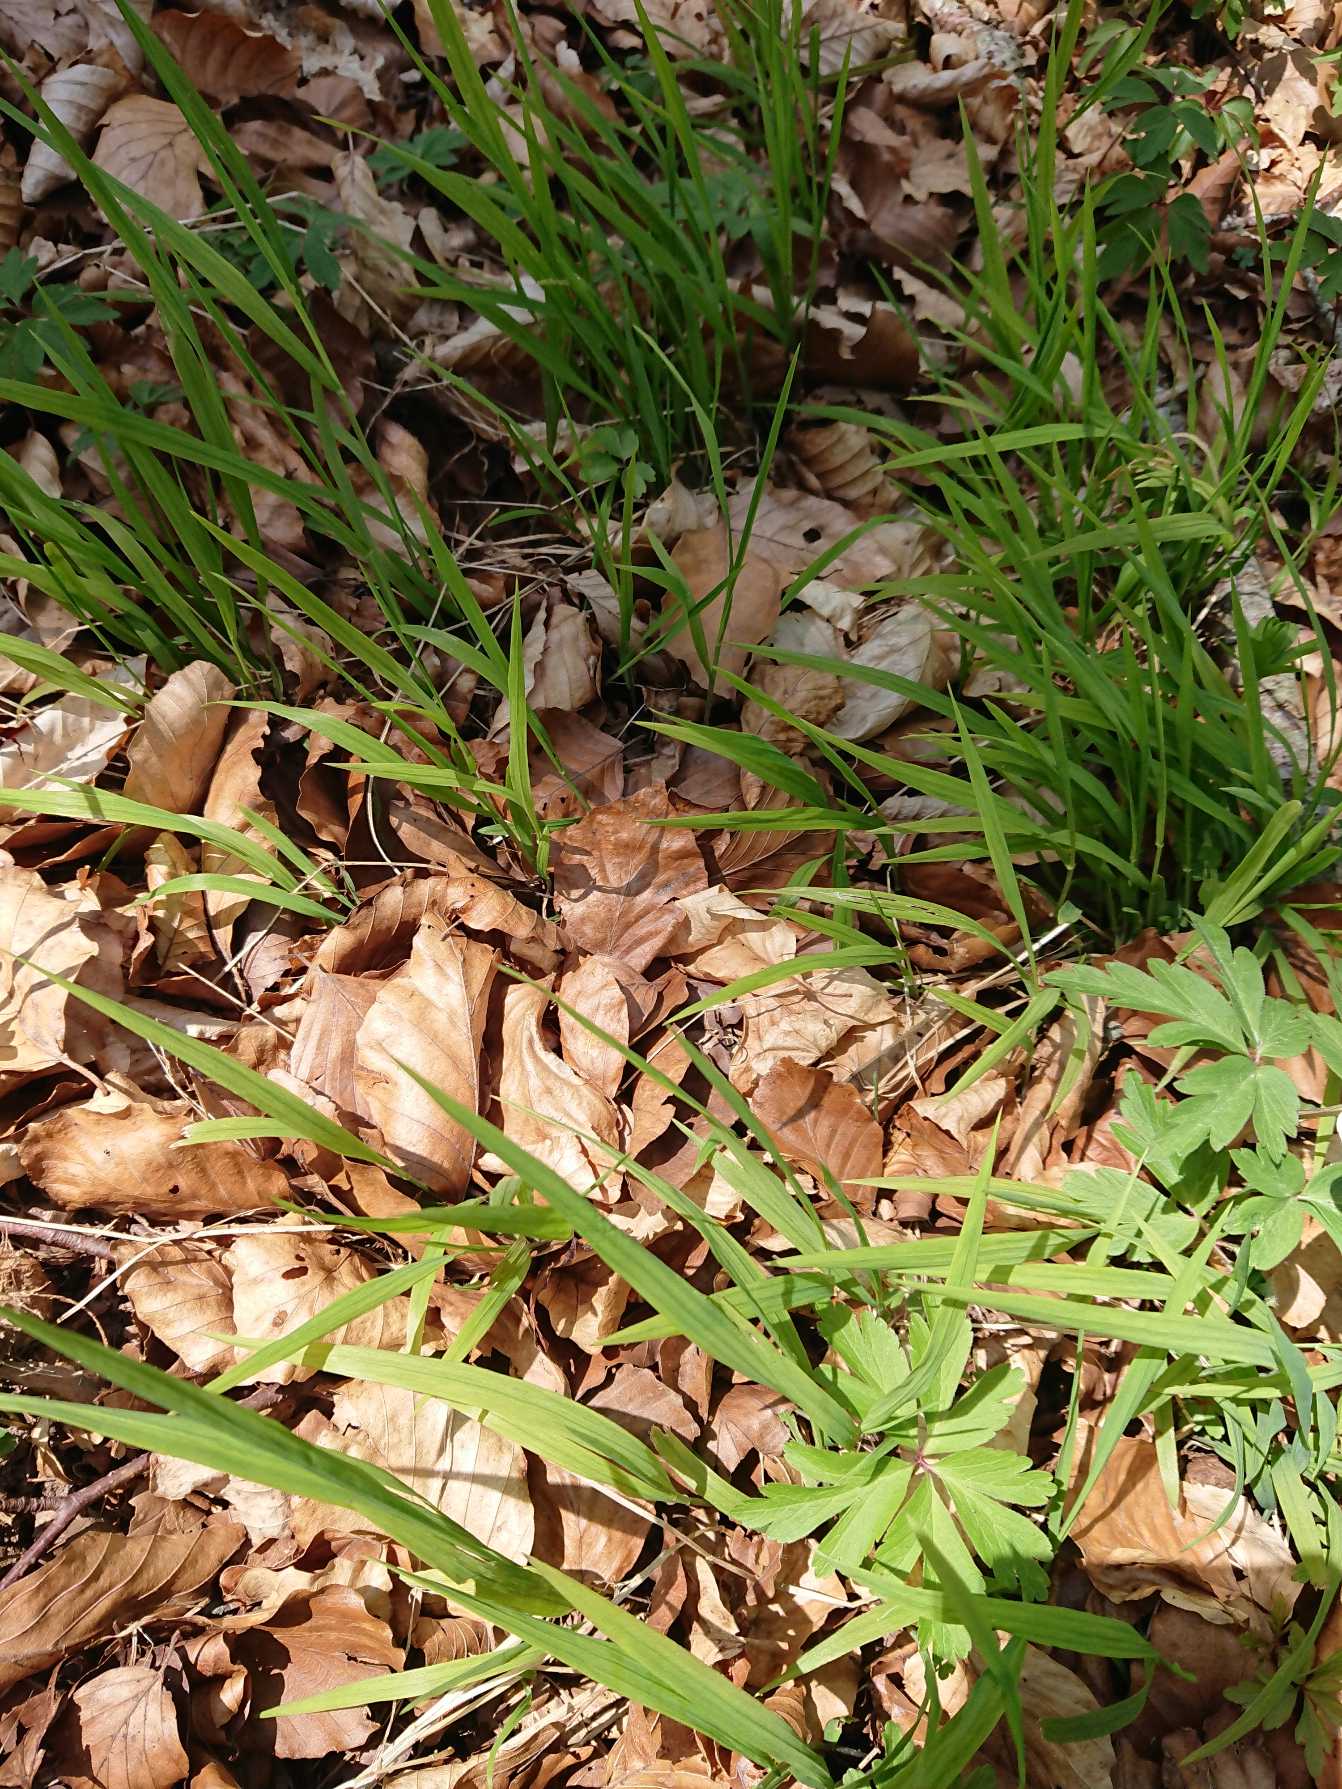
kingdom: Plantae
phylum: Tracheophyta
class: Liliopsida
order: Poales
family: Poaceae
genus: Melica
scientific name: Melica uniflora
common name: Enblomstret flitteraks
